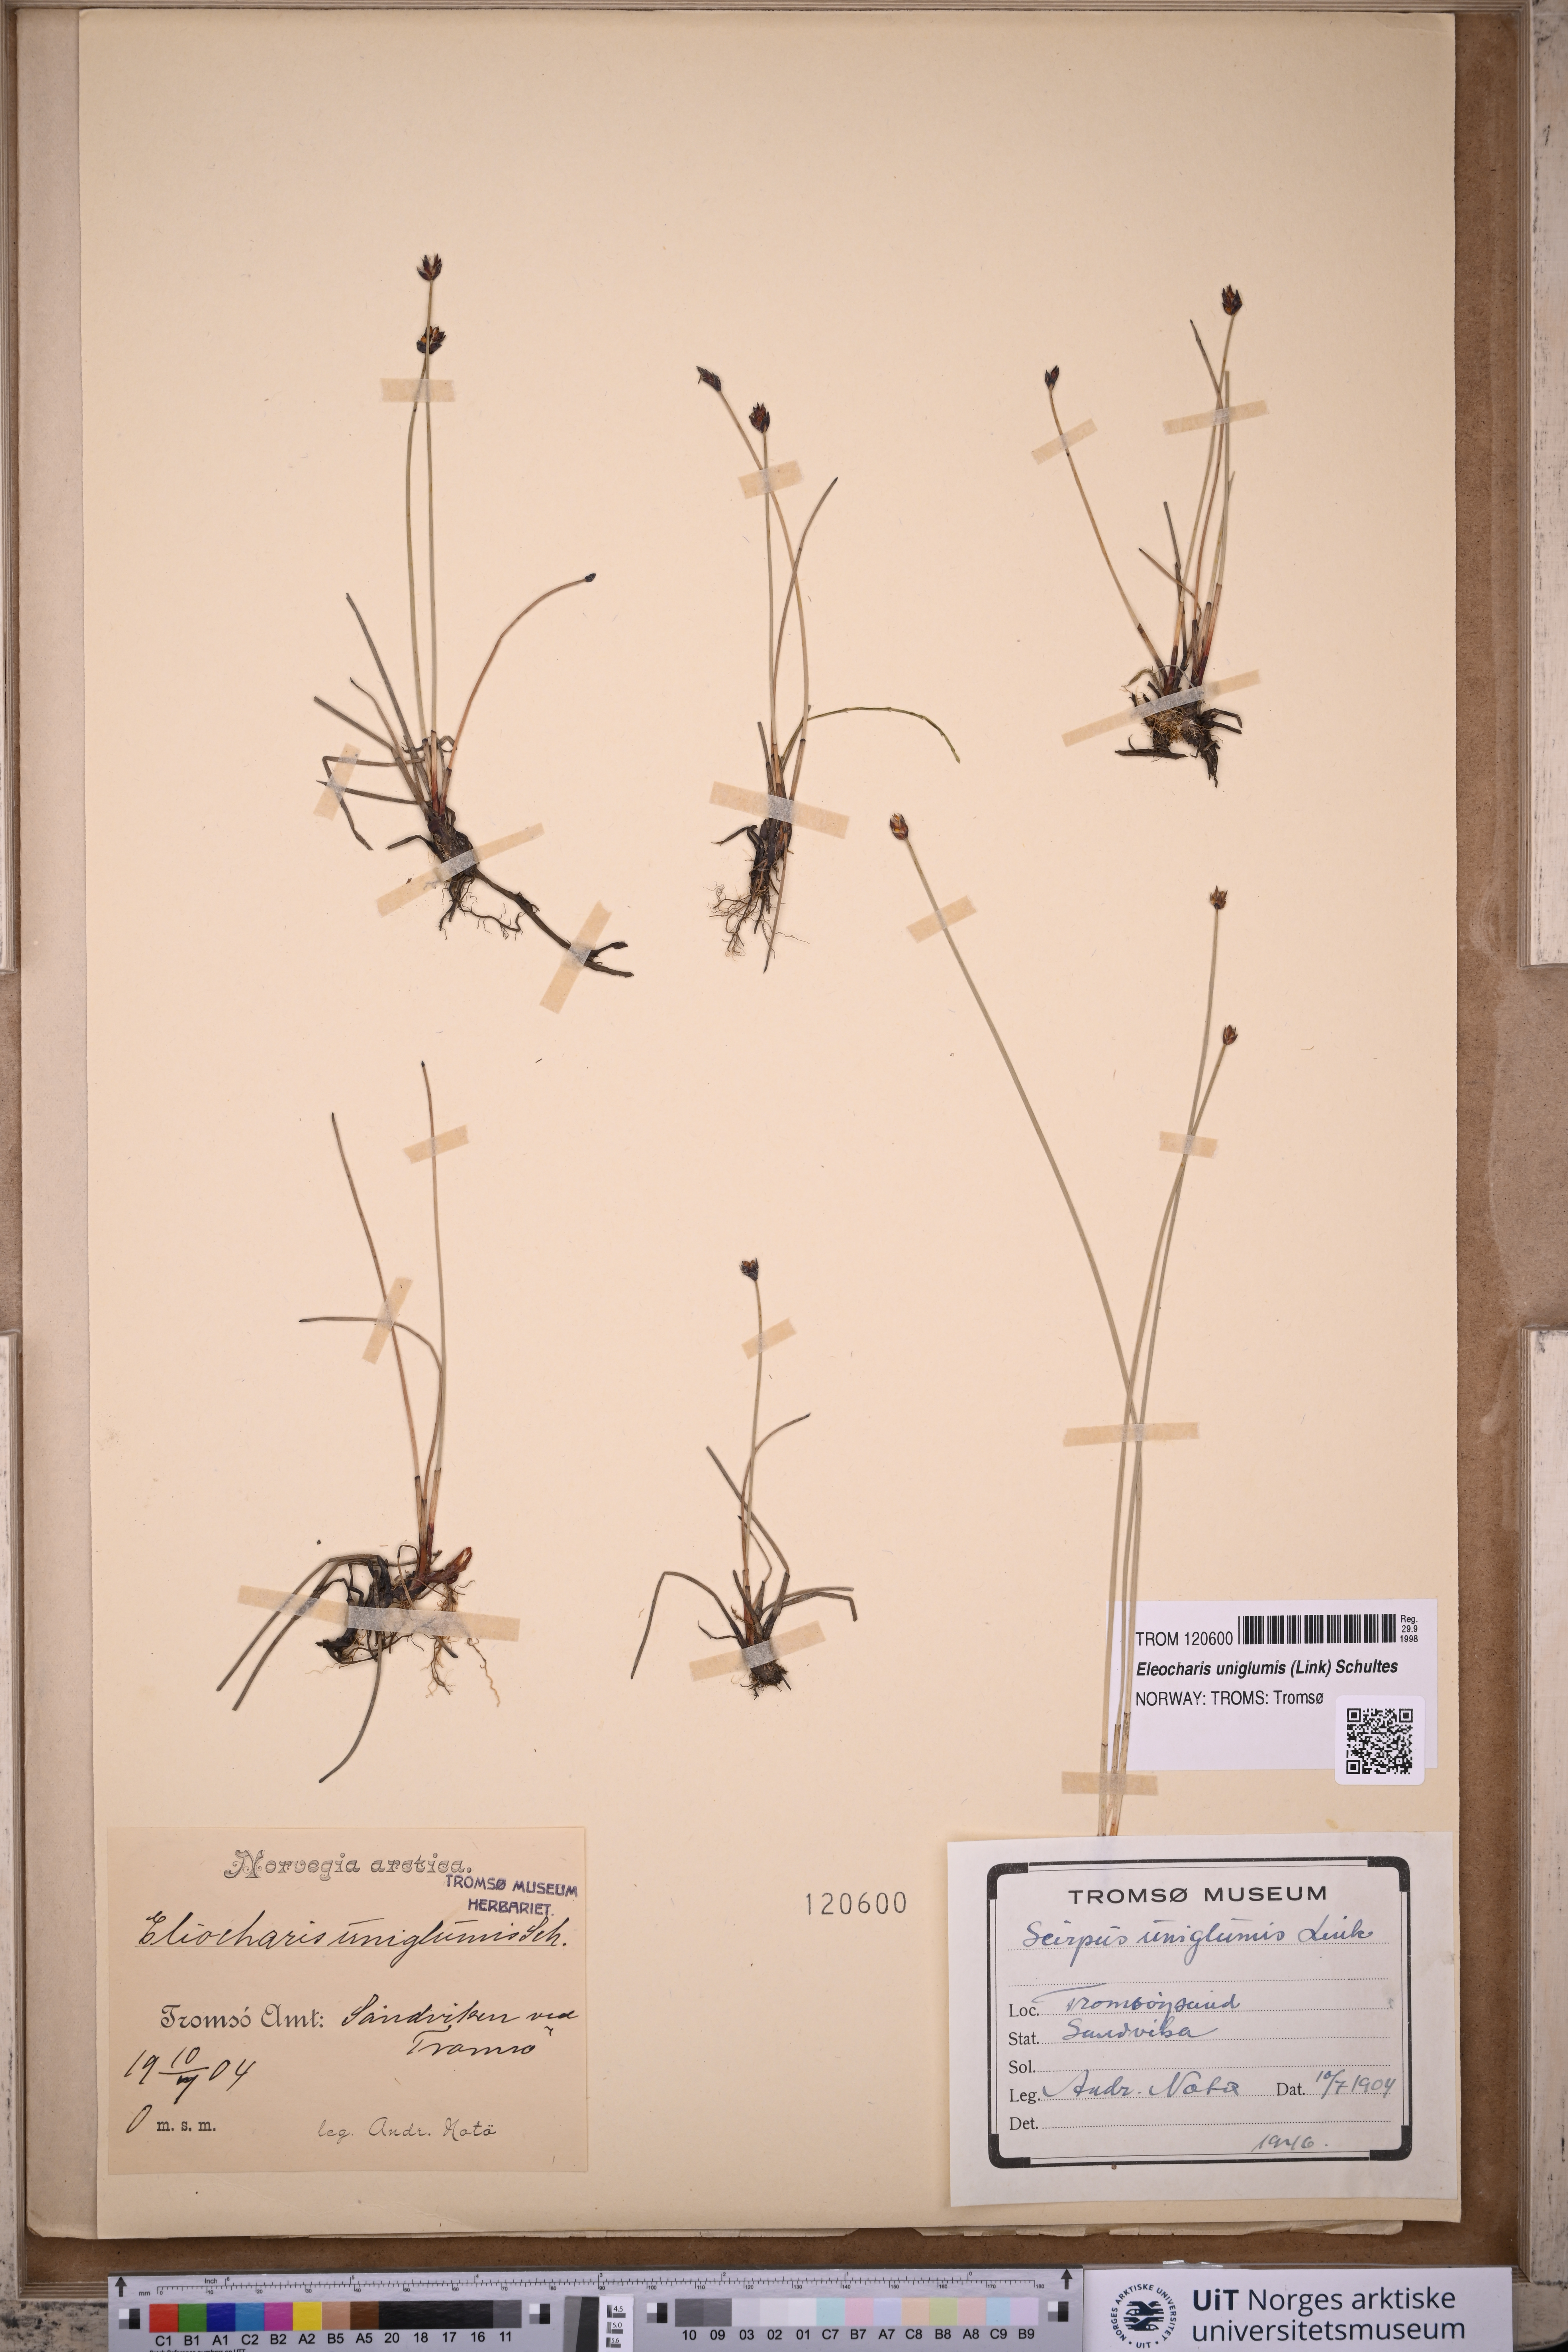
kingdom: Plantae
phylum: Tracheophyta
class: Liliopsida
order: Poales
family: Cyperaceae
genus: Eleocharis
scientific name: Eleocharis uniglumis
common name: Slender spike-rush
